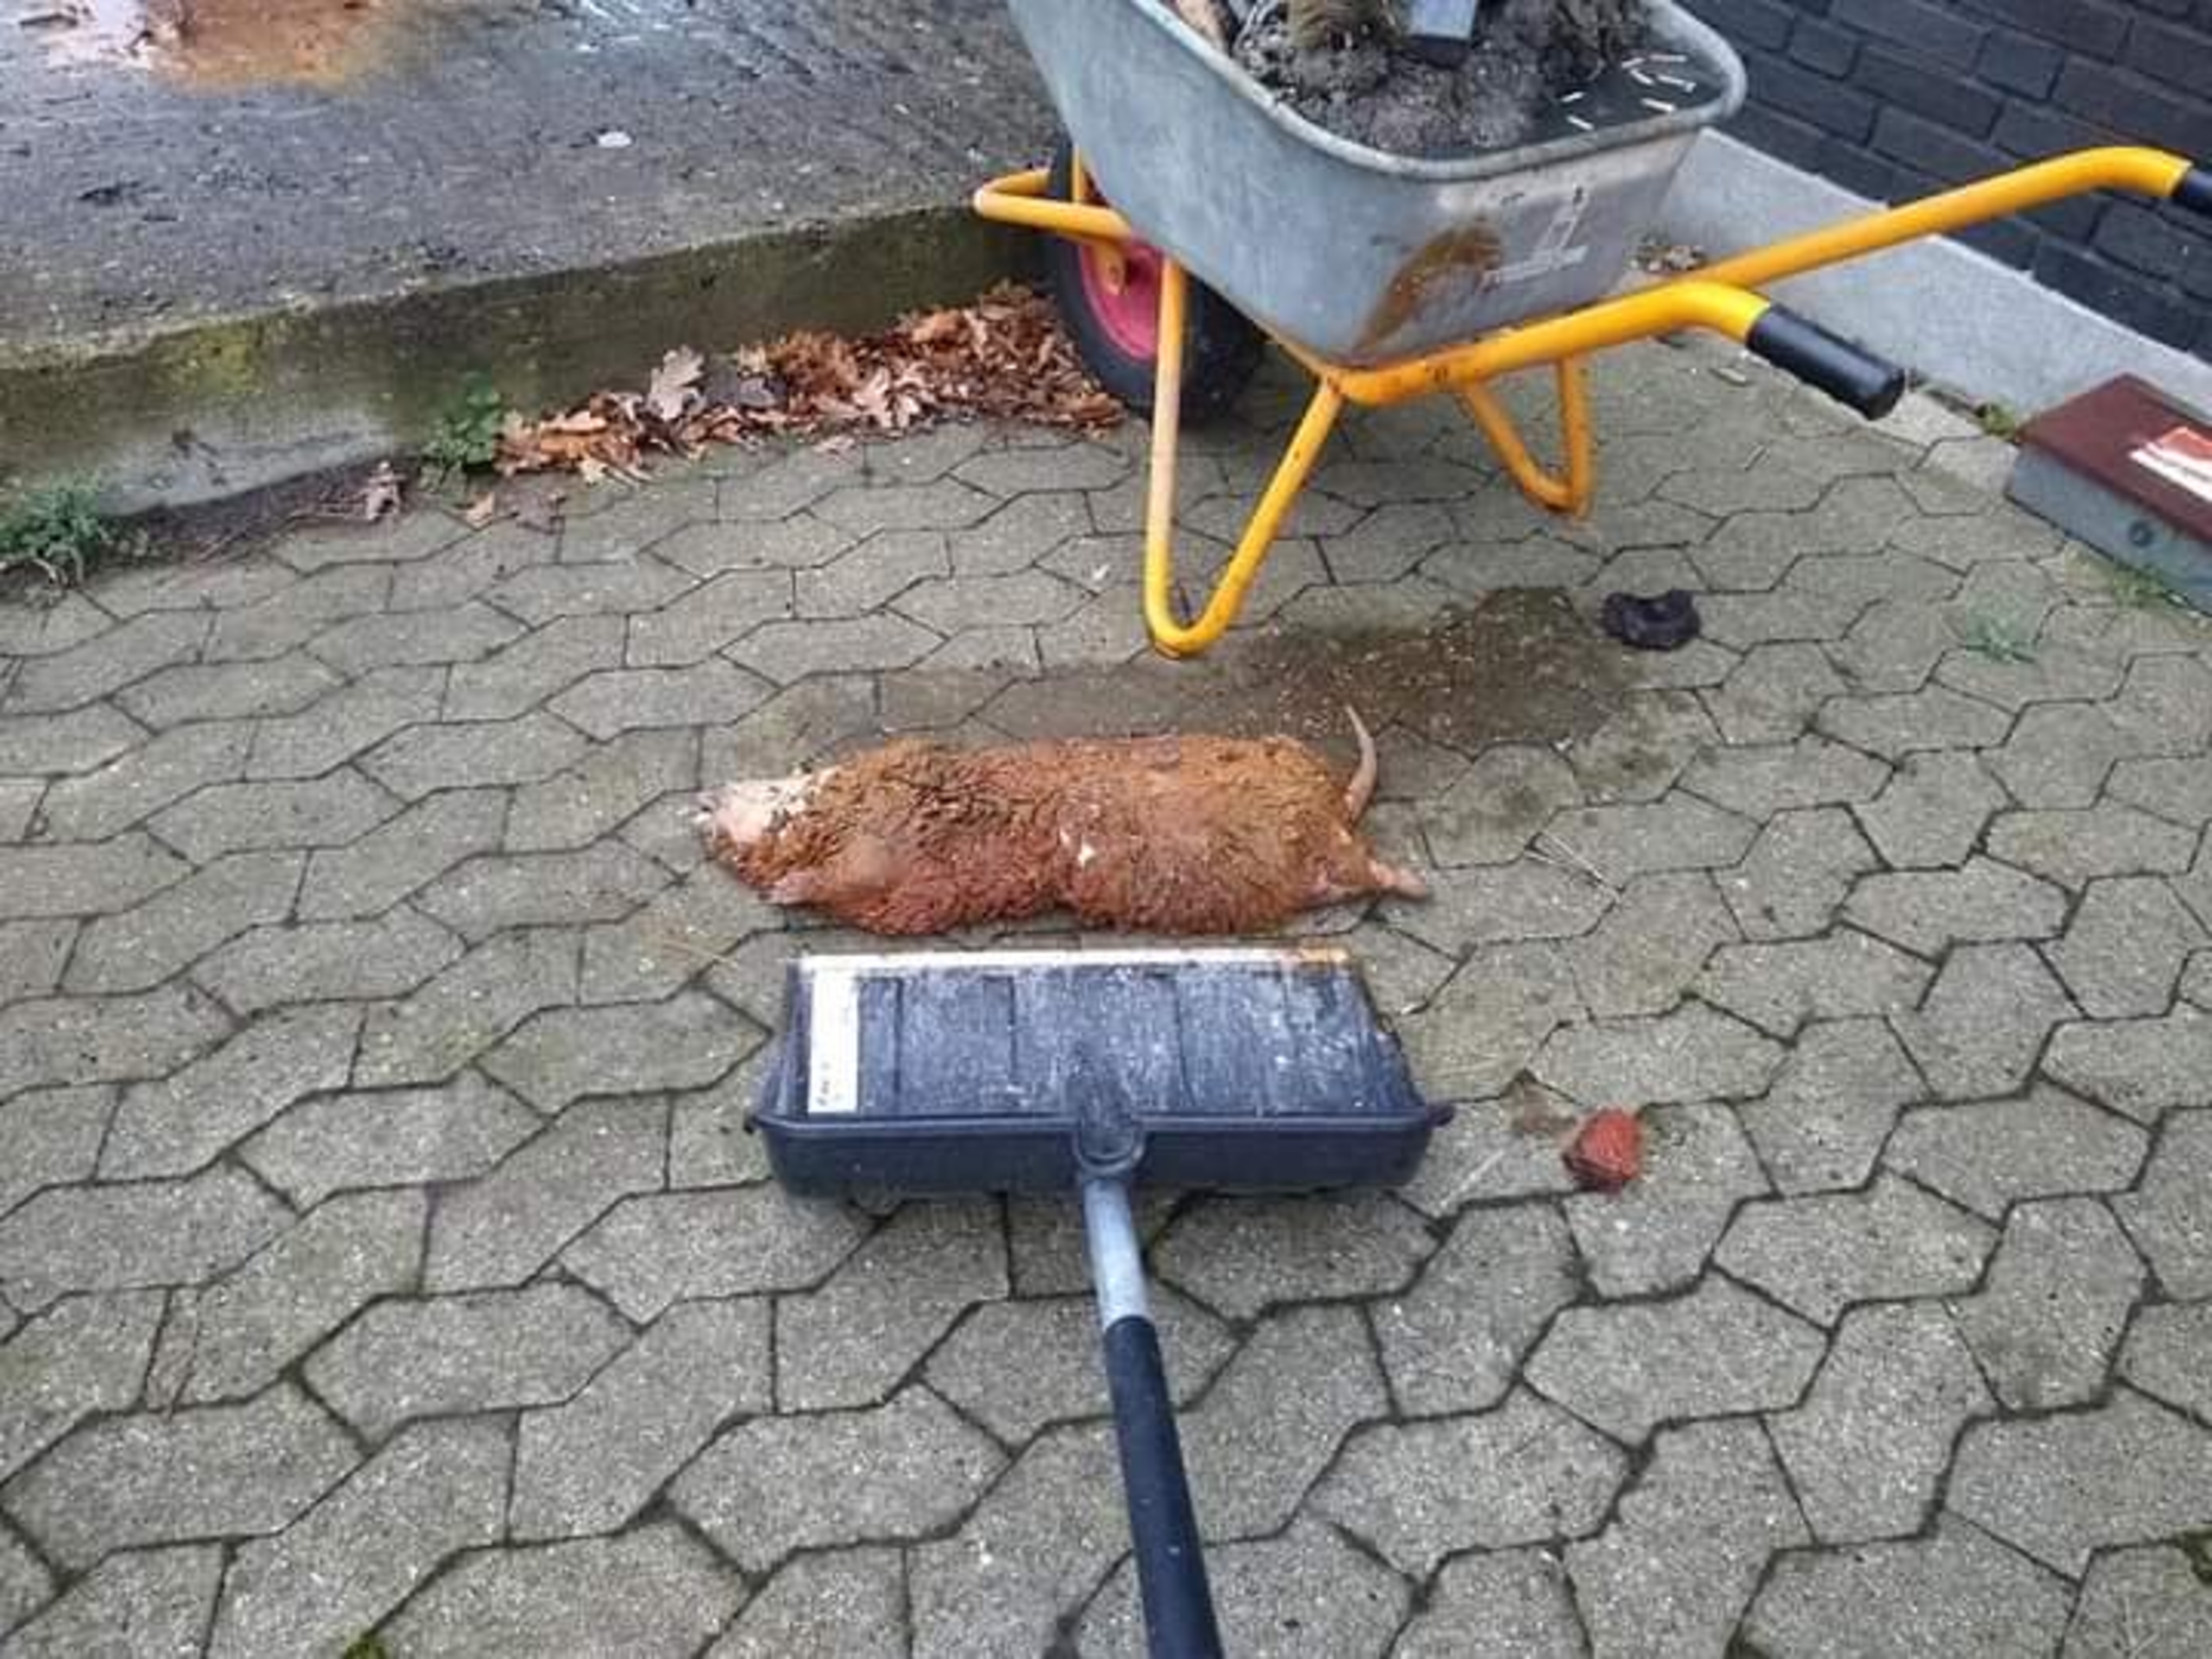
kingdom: Animalia
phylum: Chordata
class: Mammalia
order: Rodentia
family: Cricetidae
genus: Ondatra
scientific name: Ondatra zibethicus
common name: Bisamrotte
